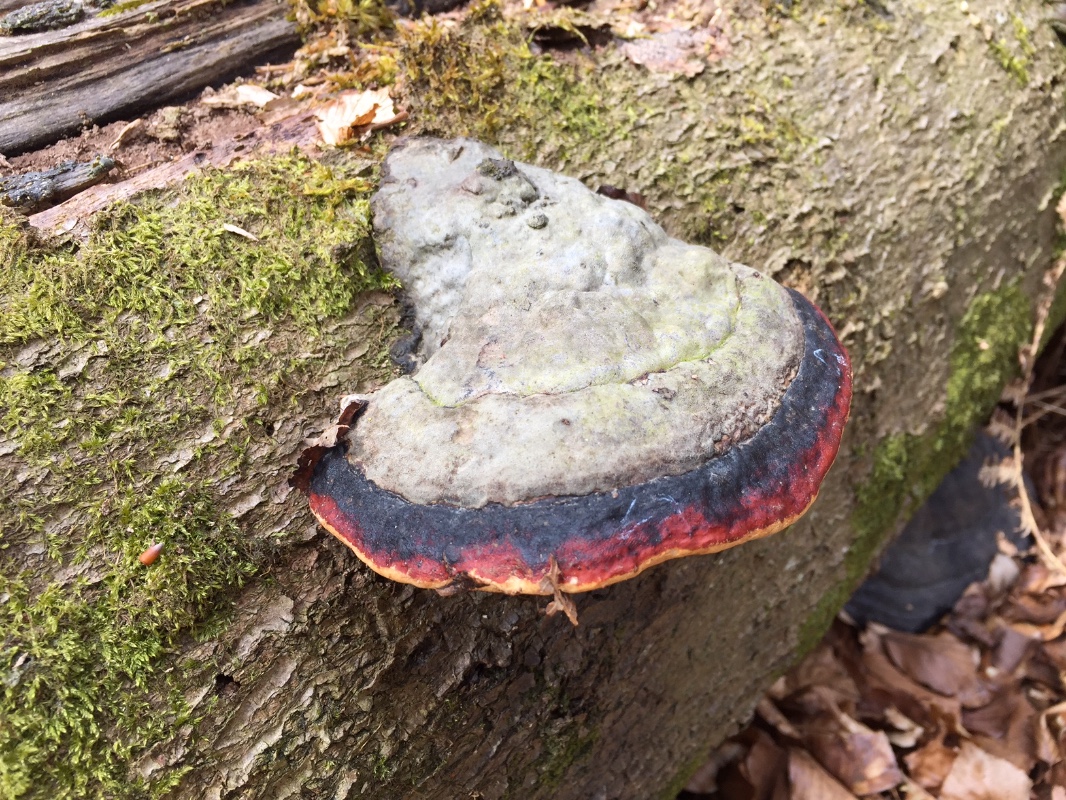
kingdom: Fungi
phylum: Basidiomycota
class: Agaricomycetes
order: Polyporales
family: Fomitopsidaceae
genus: Fomitopsis
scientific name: Fomitopsis pinicola
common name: randbæltet hovporesvamp
